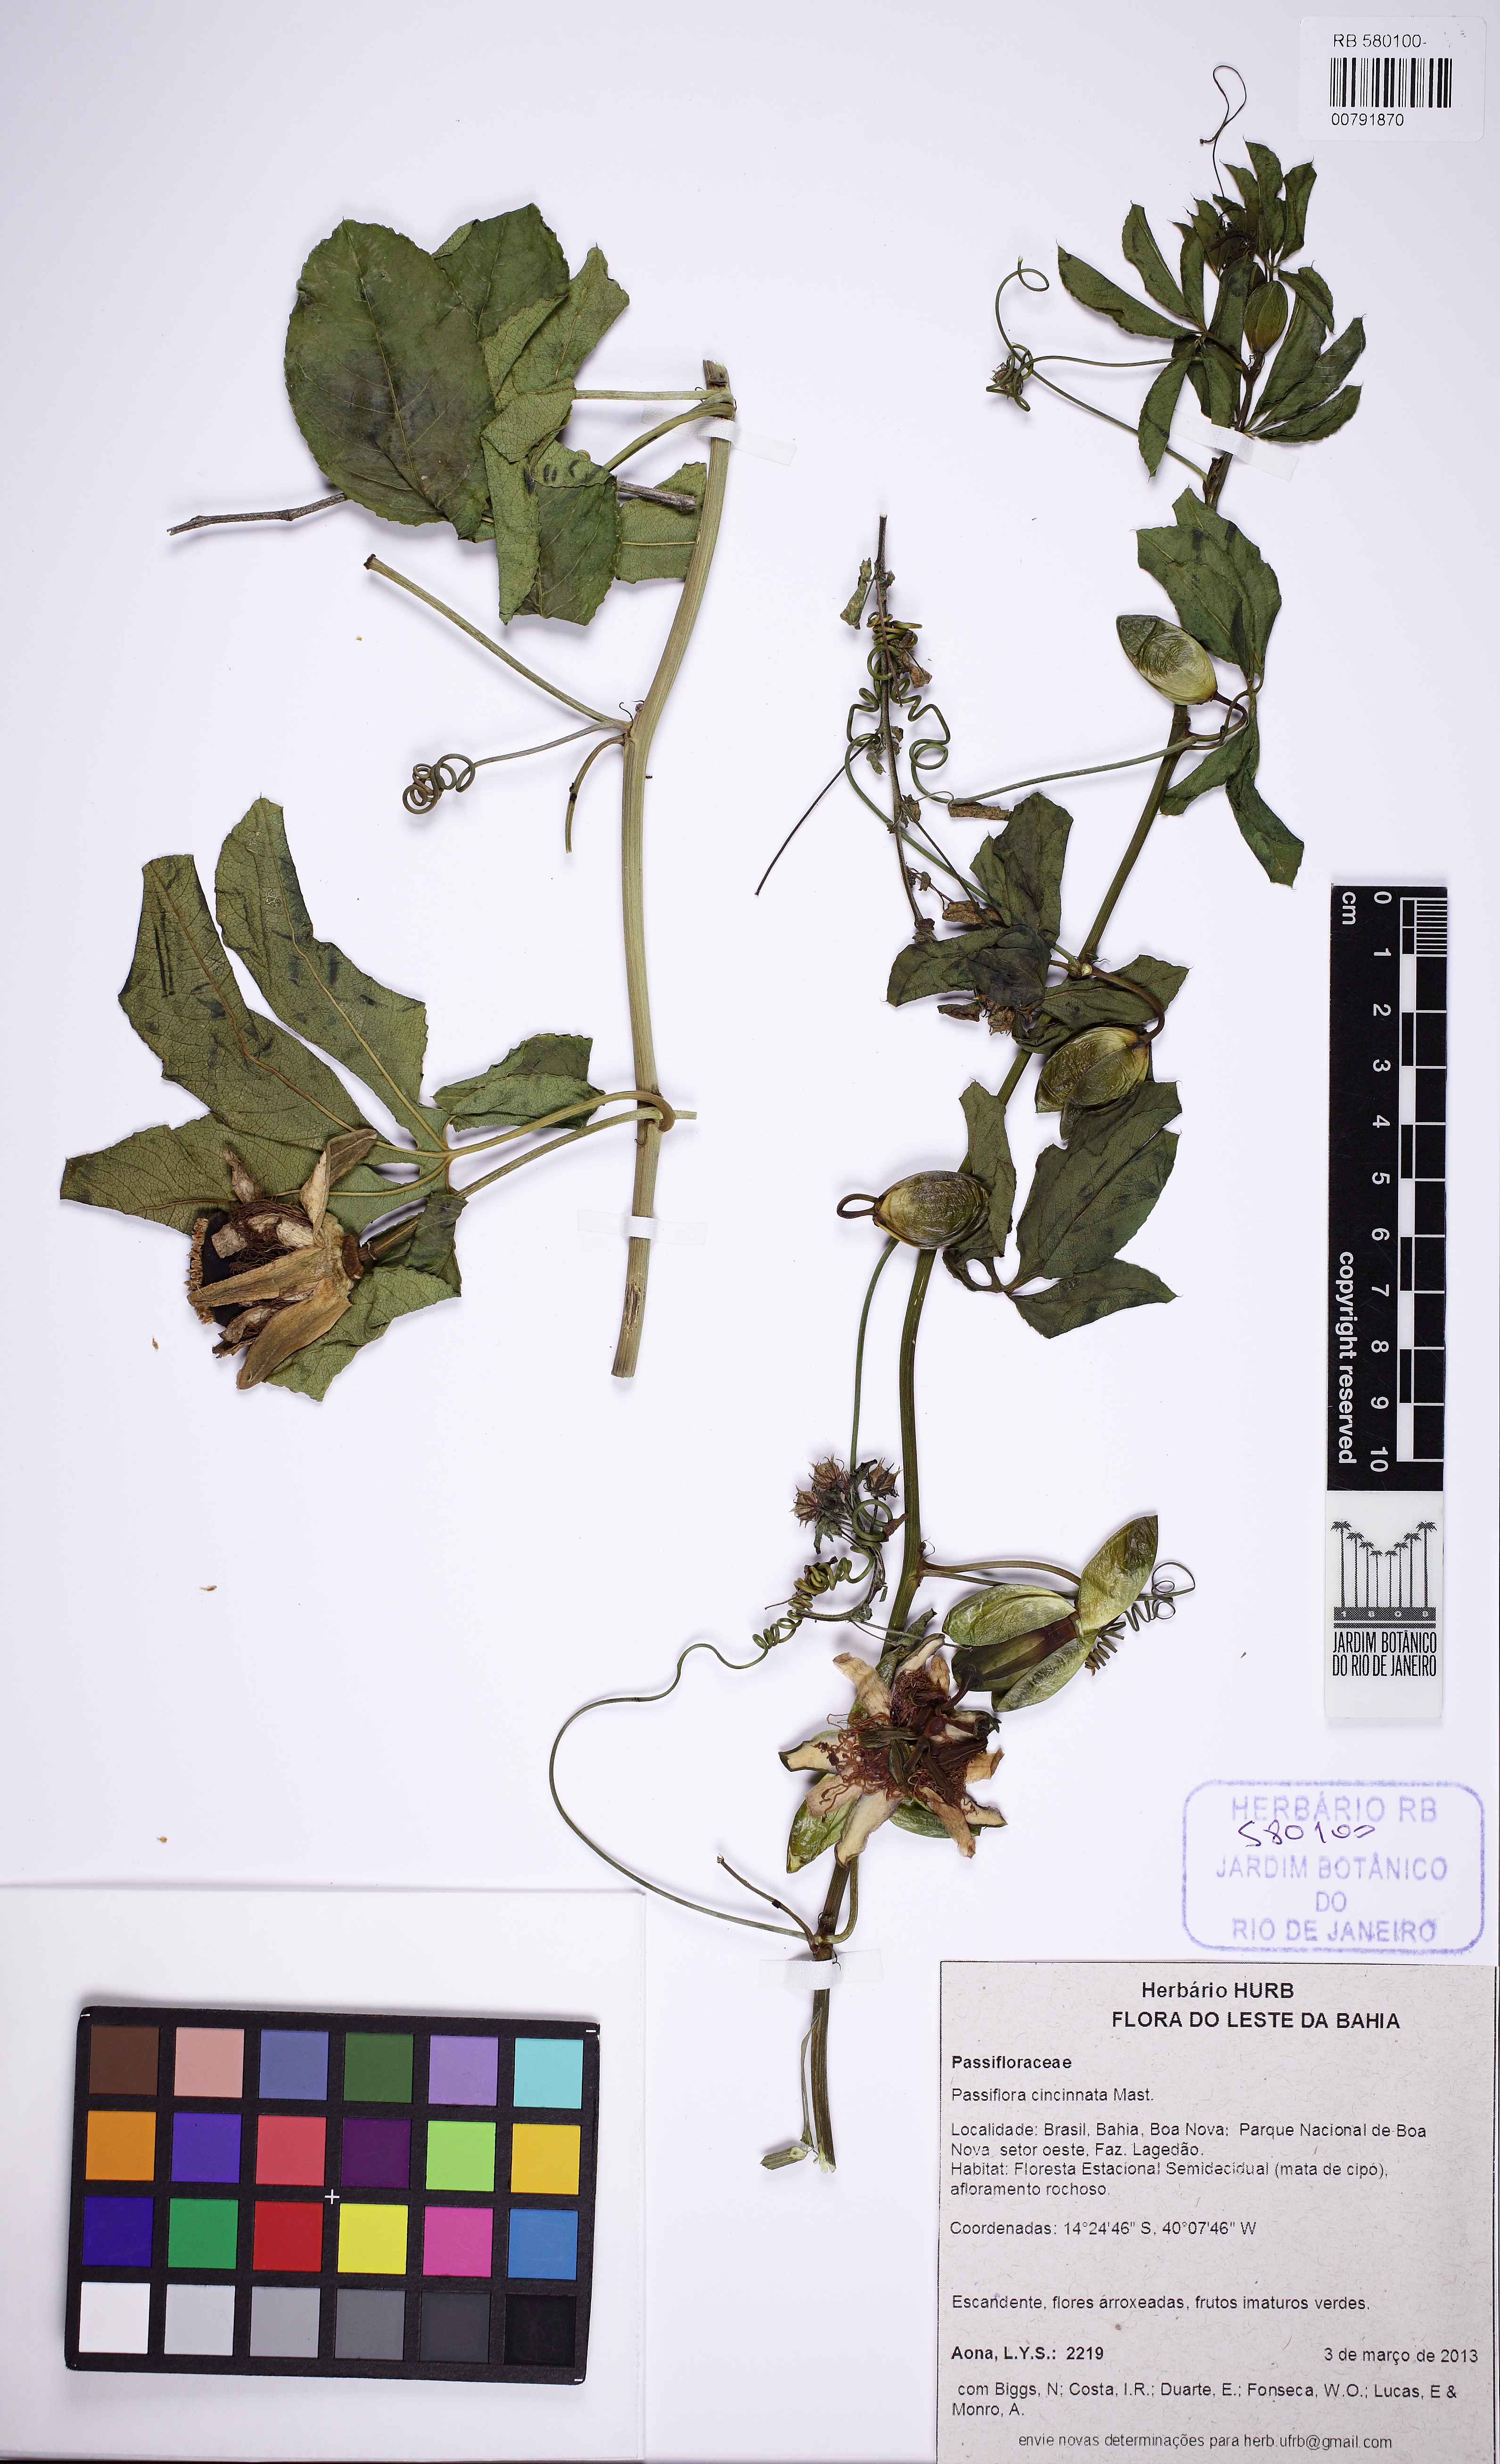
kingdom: Plantae
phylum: Tracheophyta
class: Magnoliopsida
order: Malpighiales
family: Passifloraceae
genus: Passiflora
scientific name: Passiflora
